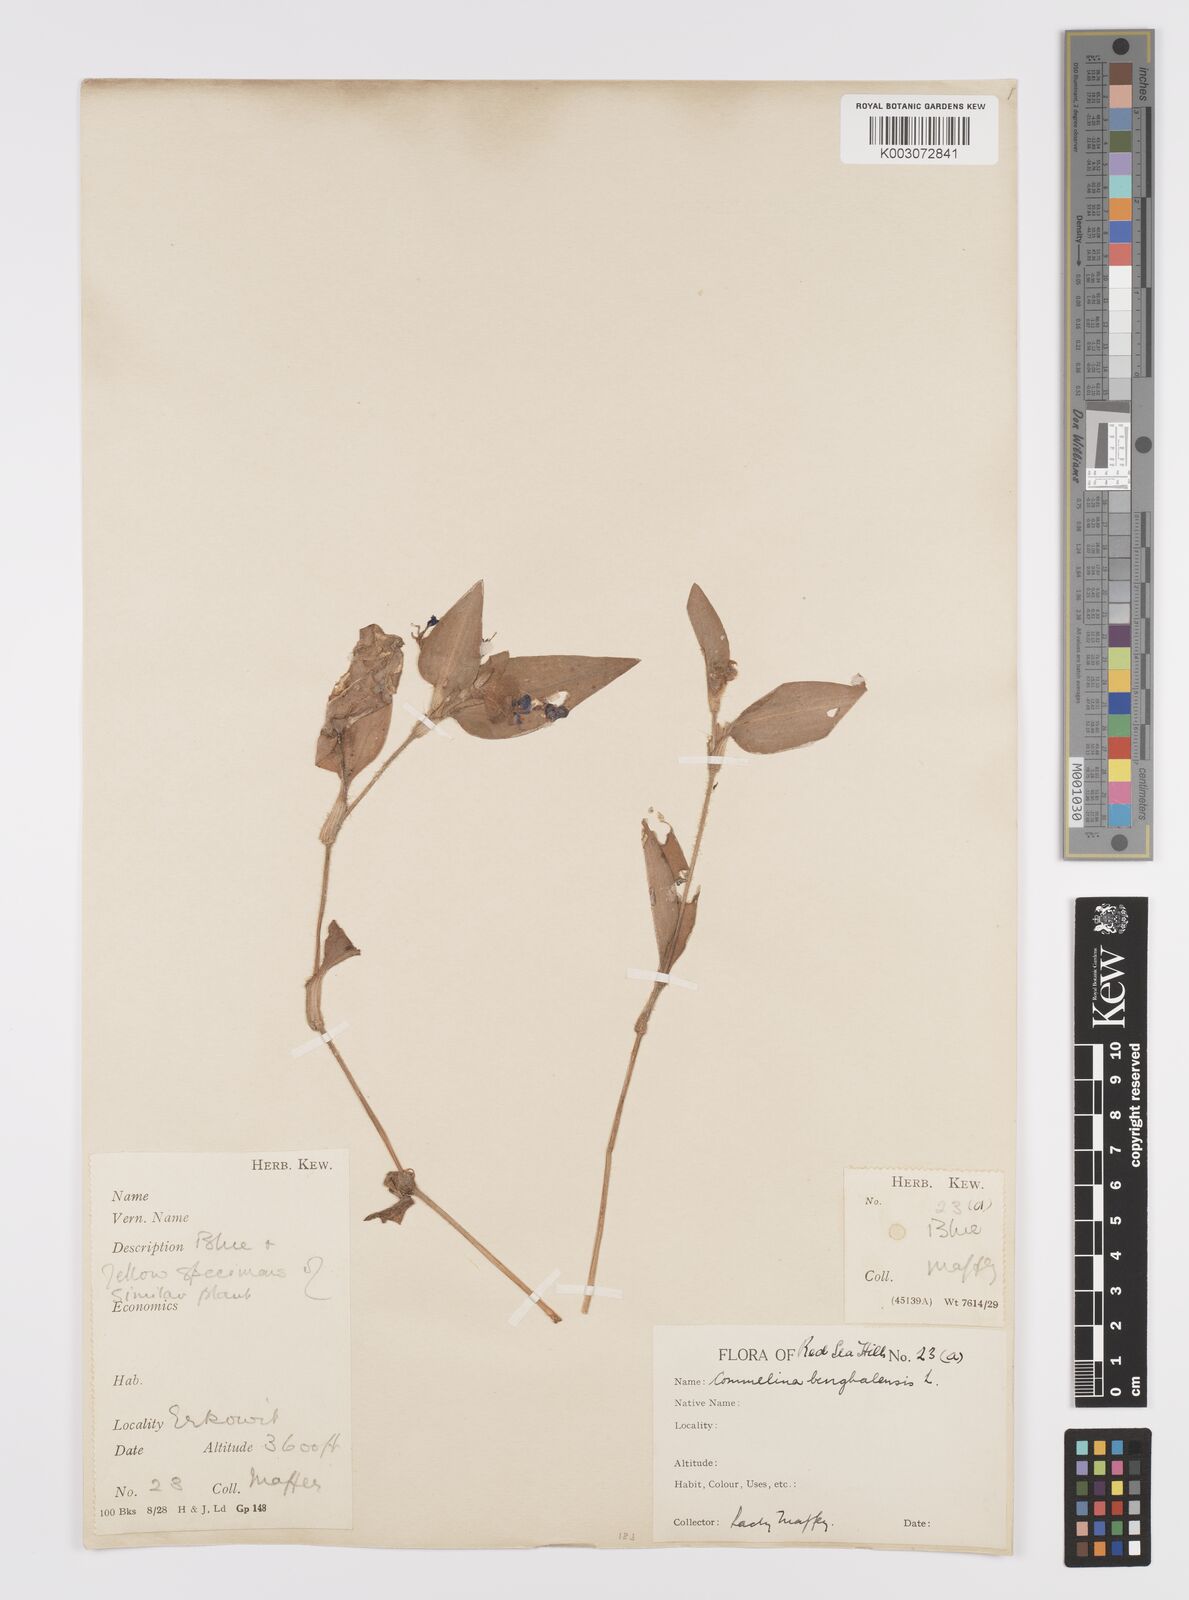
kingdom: Plantae
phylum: Tracheophyta
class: Liliopsida
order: Commelinales
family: Commelinaceae
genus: Commelina
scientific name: Commelina benghalensis
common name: Jio
